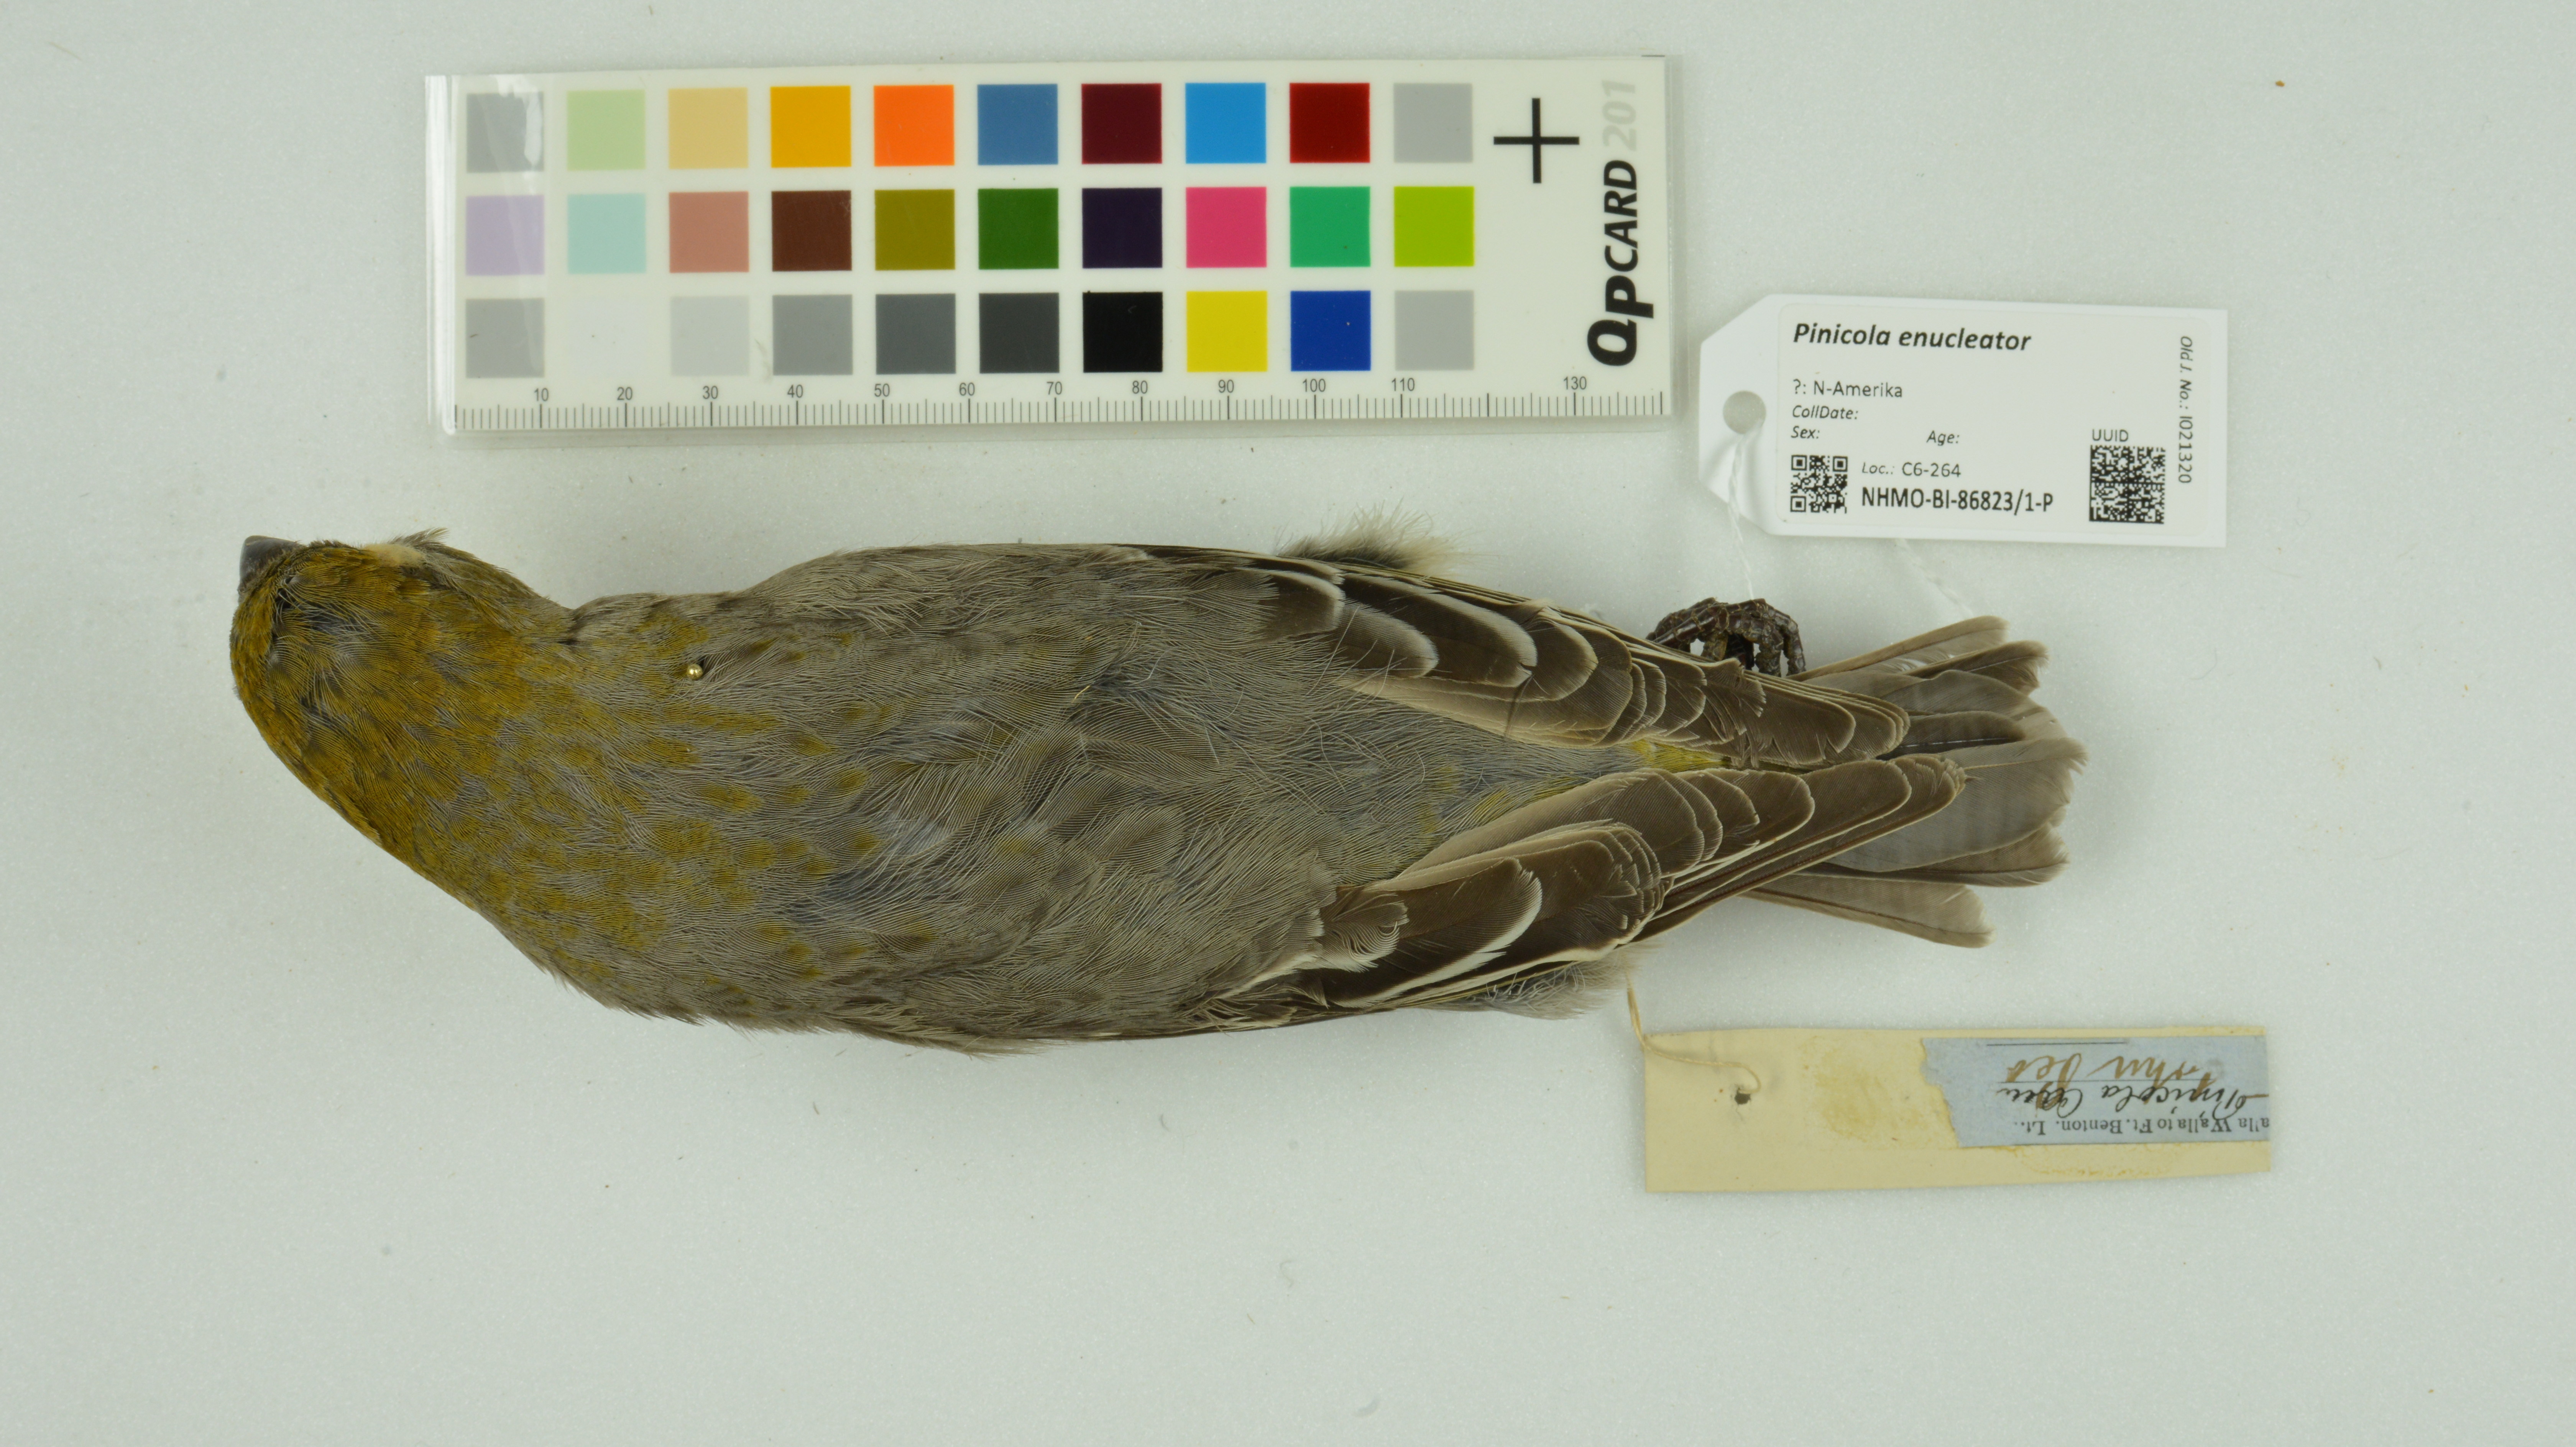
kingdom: Animalia
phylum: Chordata
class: Aves
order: Passeriformes
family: Fringillidae
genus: Pinicola
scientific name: Pinicola enucleator
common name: Pine grosbeak
